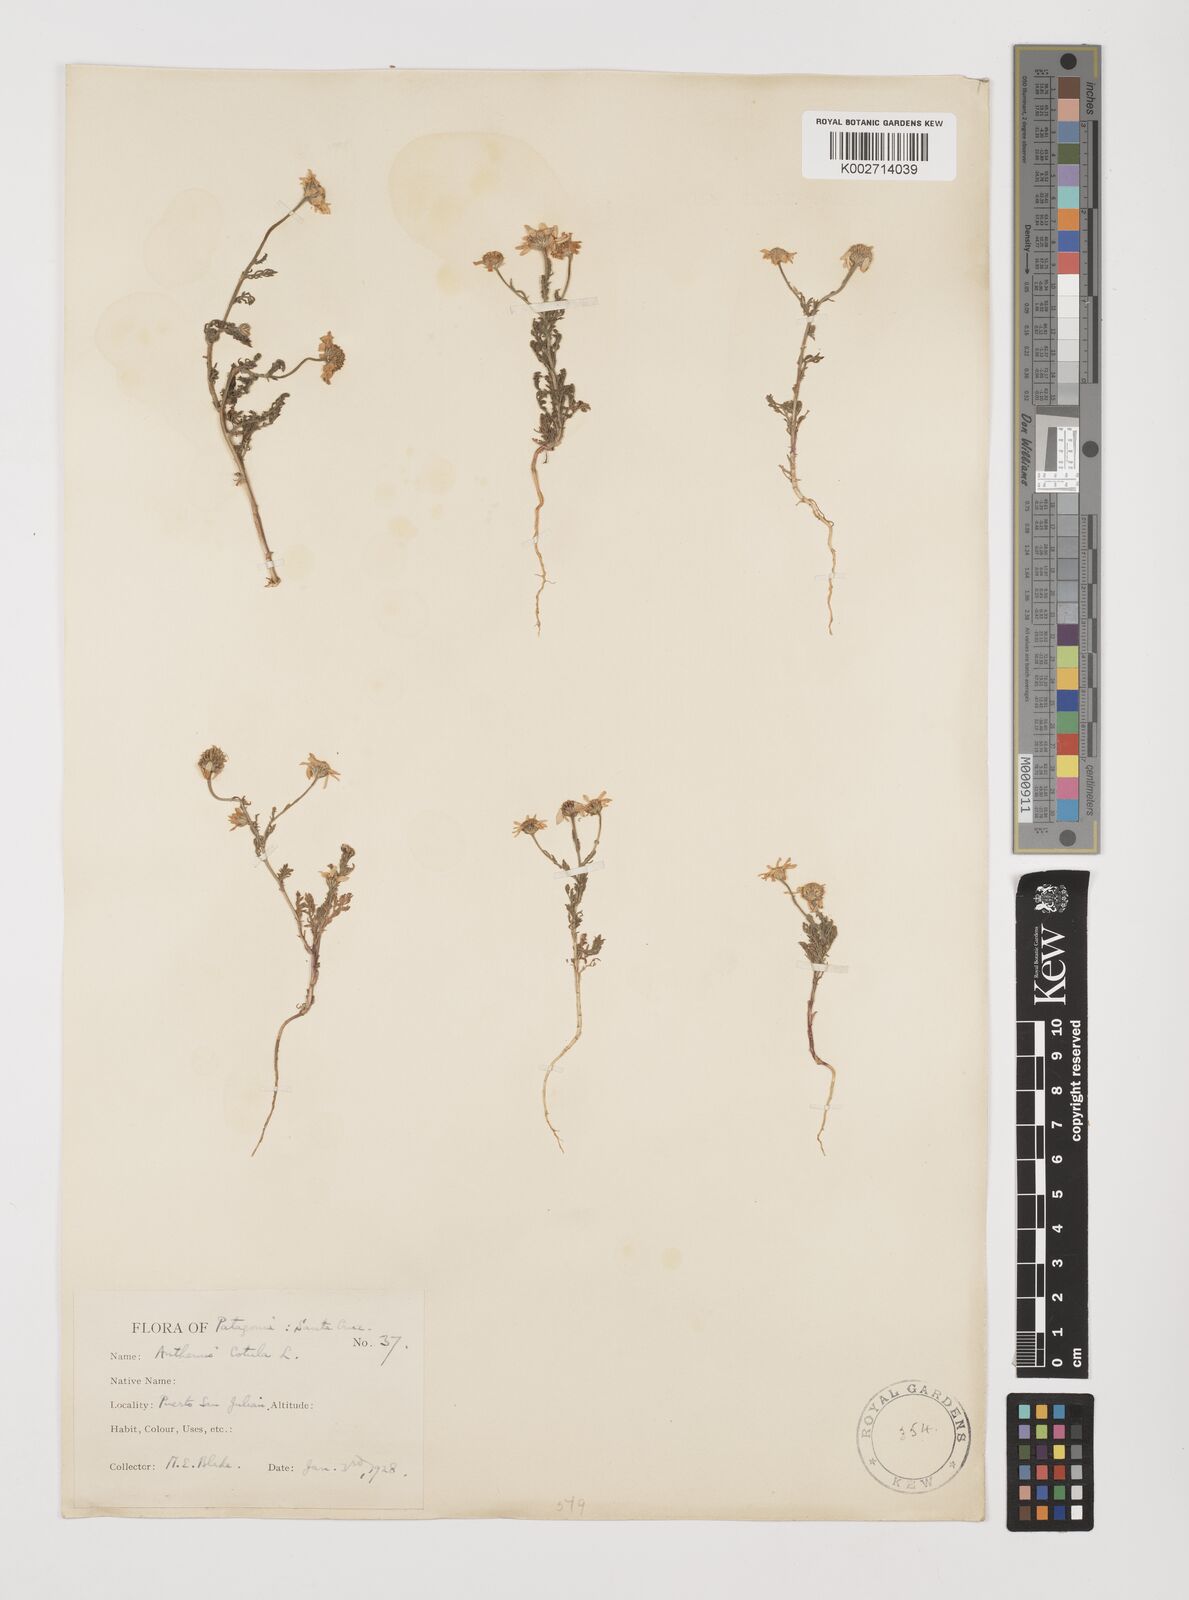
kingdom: Plantae
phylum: Tracheophyta
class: Magnoliopsida
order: Asterales
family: Asteraceae
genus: Anthemis
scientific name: Anthemis cotula
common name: Stinking chamomile
